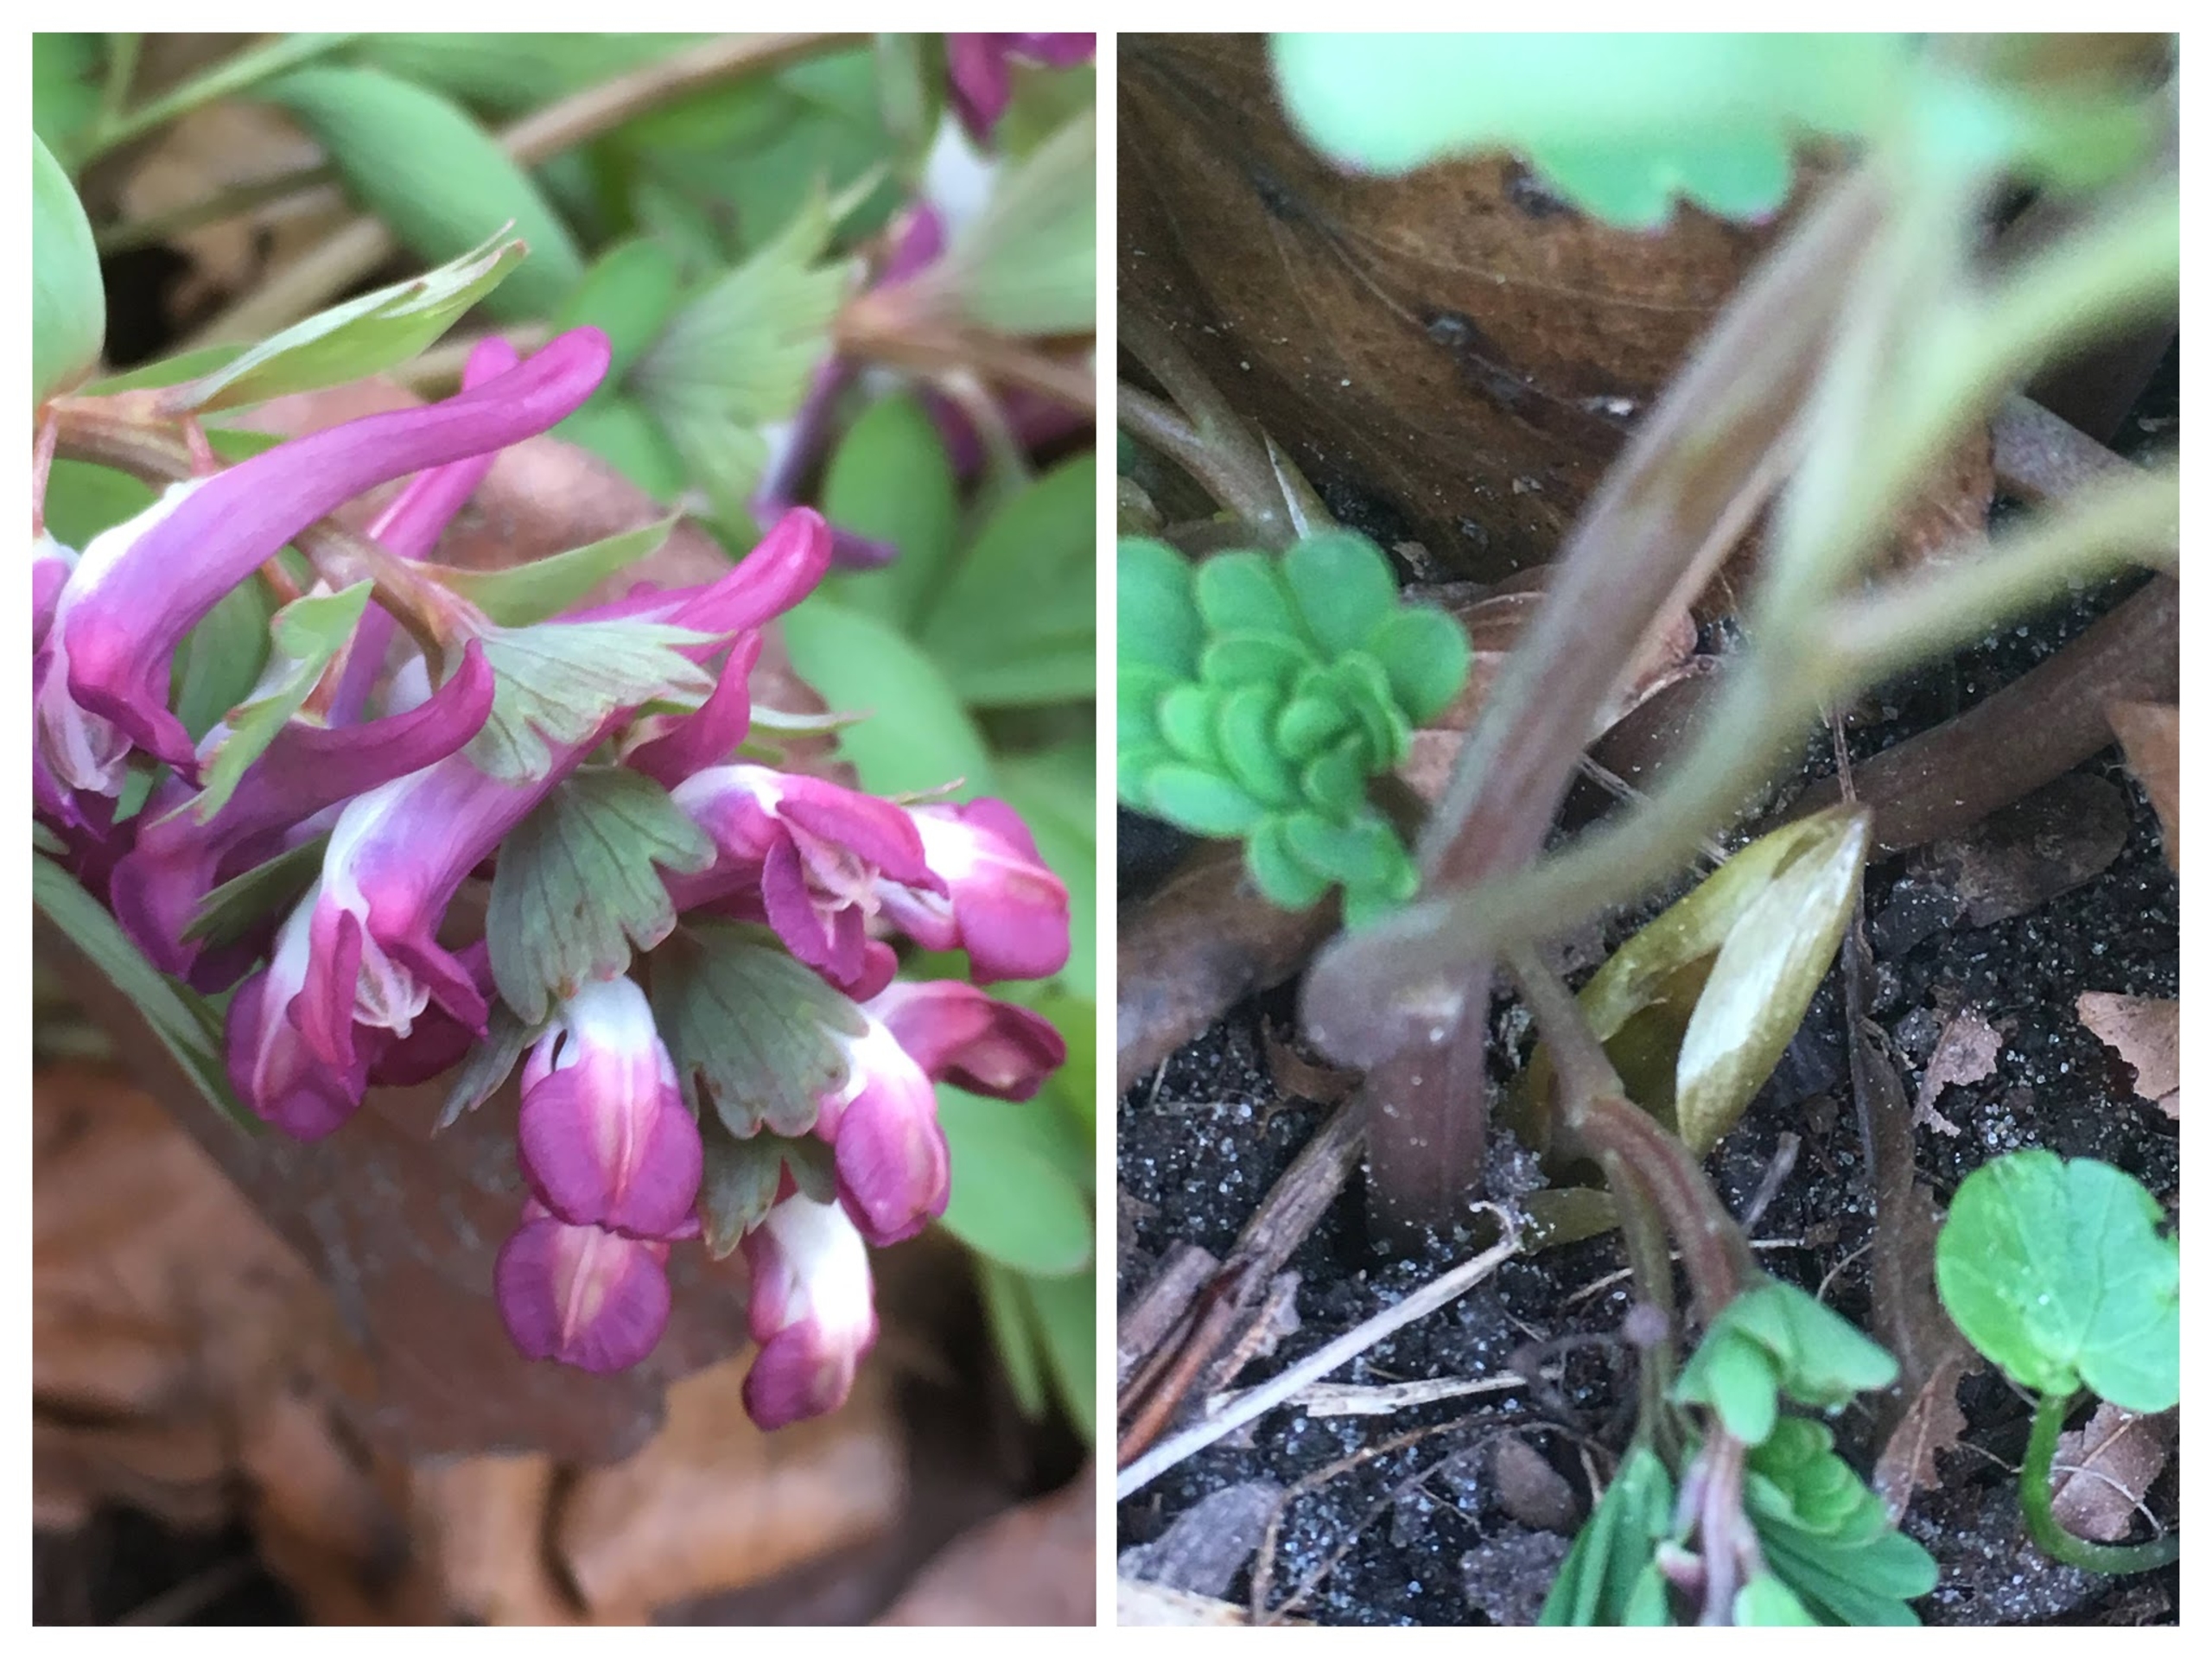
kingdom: Plantae
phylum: Tracheophyta
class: Magnoliopsida
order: Ranunculales
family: Papaveraceae
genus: Corydalis
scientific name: Corydalis pumila
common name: Finger-lærkespore
